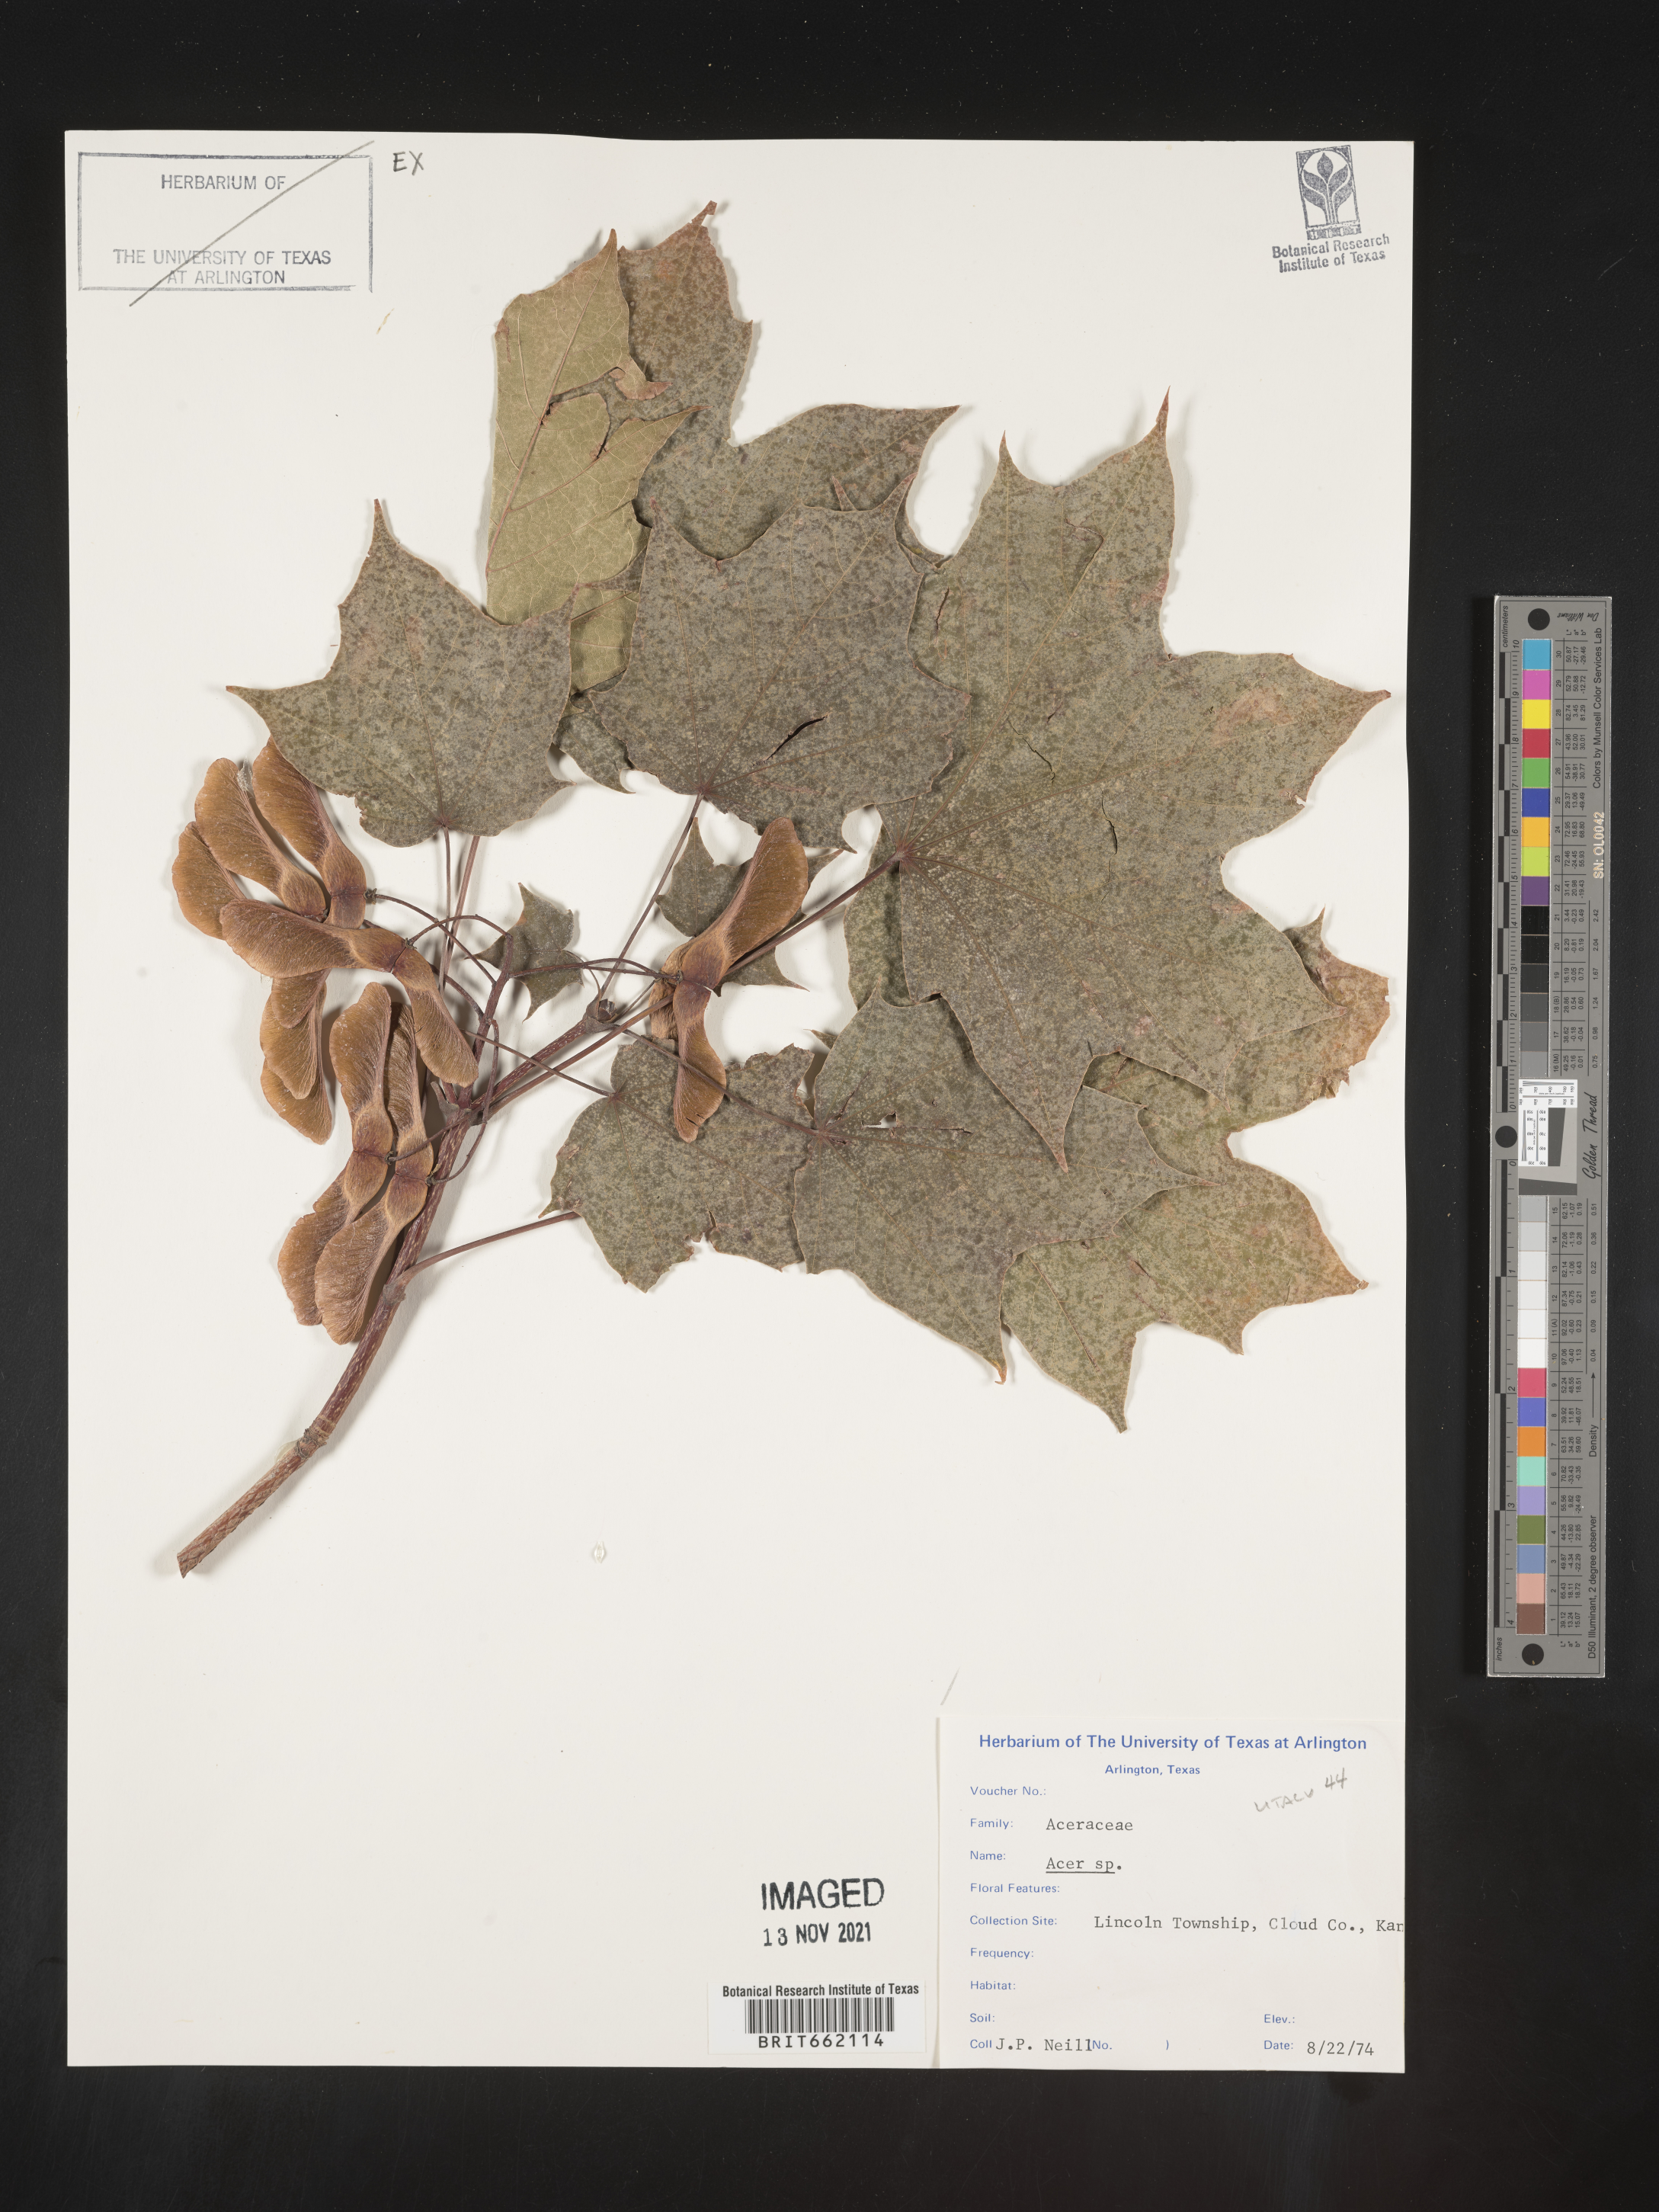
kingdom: Plantae
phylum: Tracheophyta
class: Magnoliopsida
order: Sapindales
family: Sapindaceae
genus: Acer
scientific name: Acer
